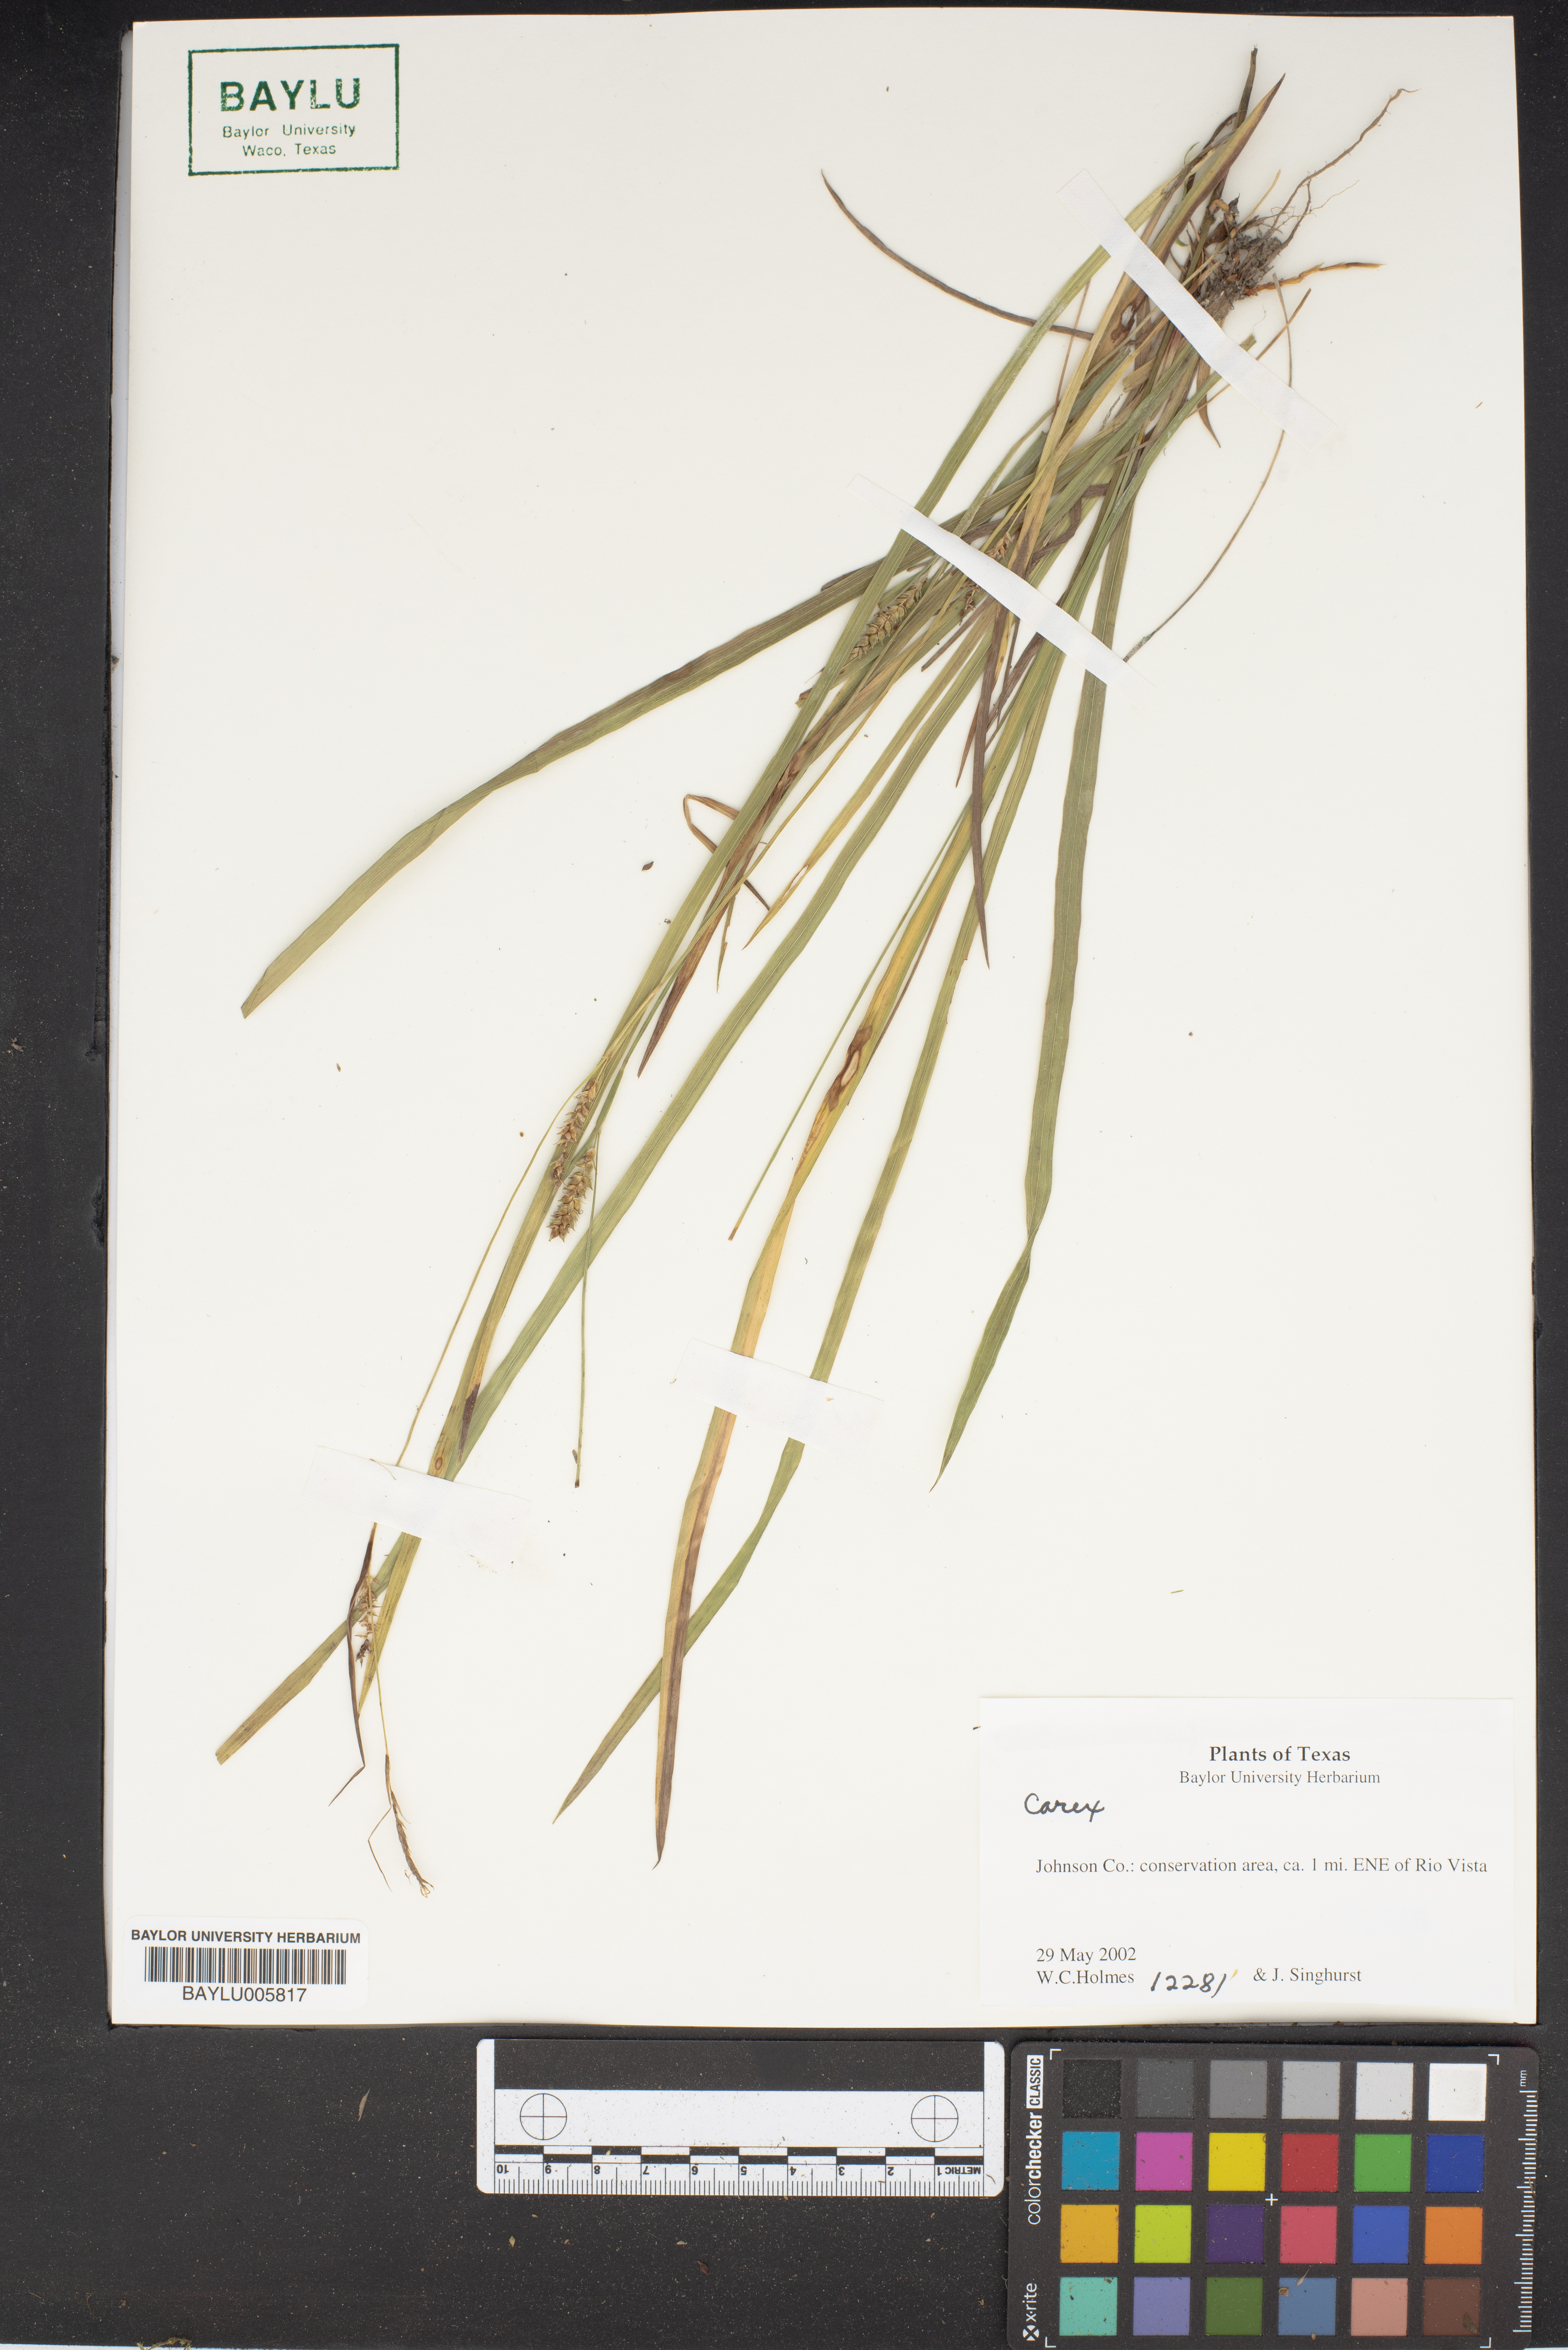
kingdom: Plantae
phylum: Tracheophyta
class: Liliopsida
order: Poales
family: Cyperaceae
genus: Carex
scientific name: Carex
